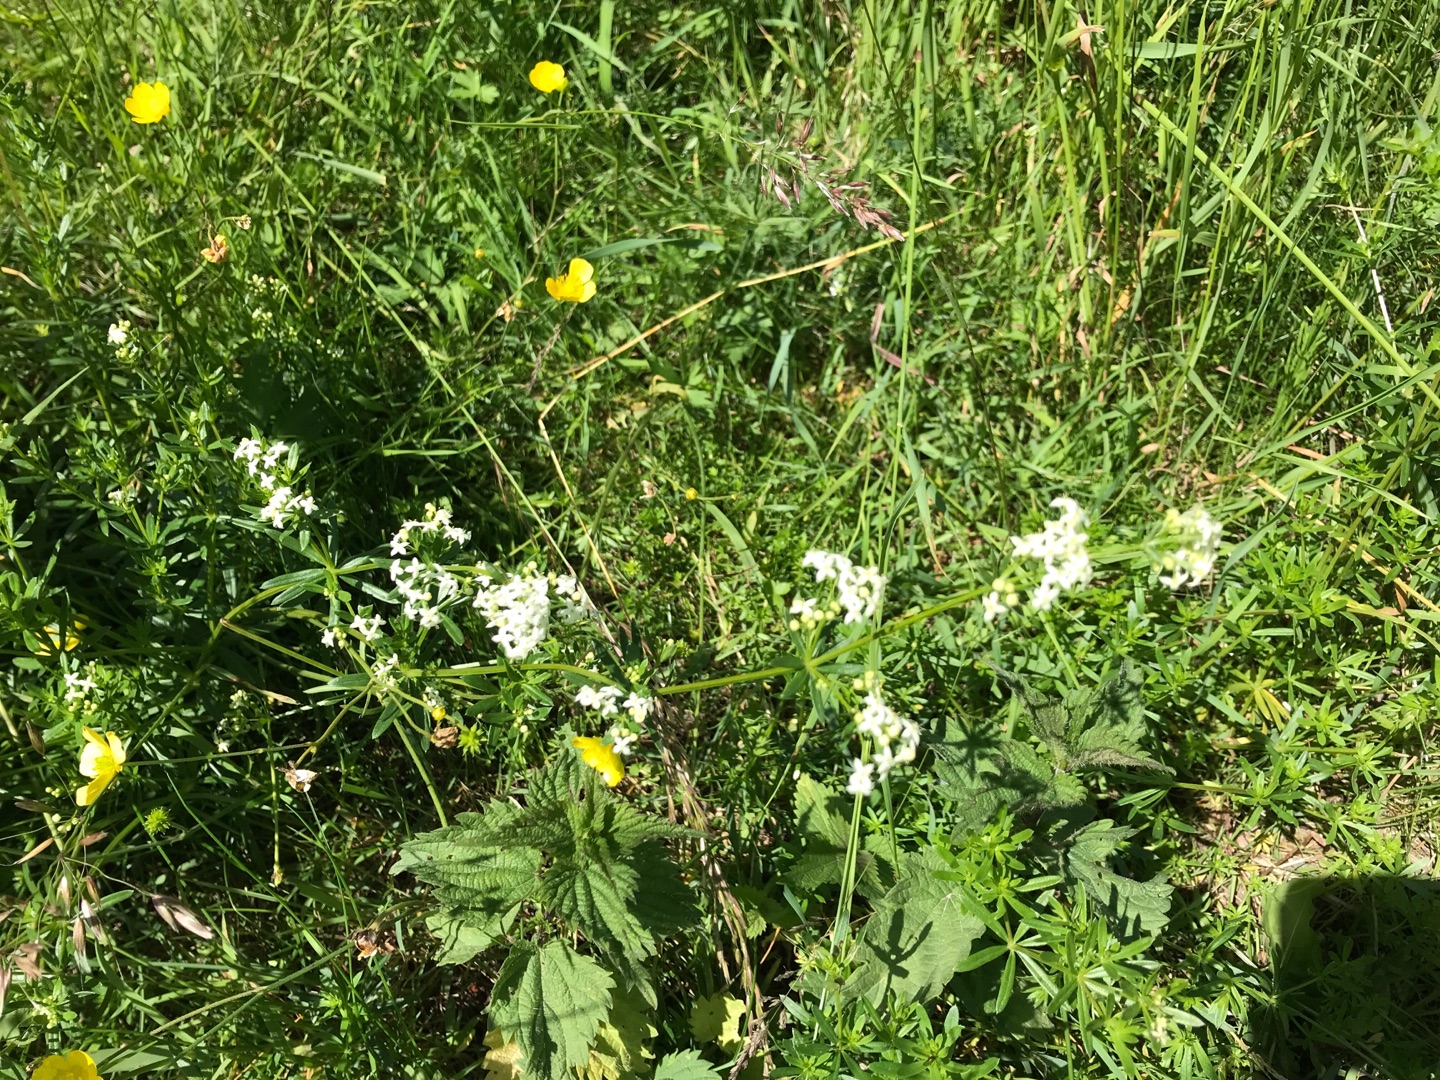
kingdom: Plantae
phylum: Tracheophyta
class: Magnoliopsida
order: Gentianales
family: Rubiaceae
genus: Galium
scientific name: Galium mollugo
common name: Hvid snerre
